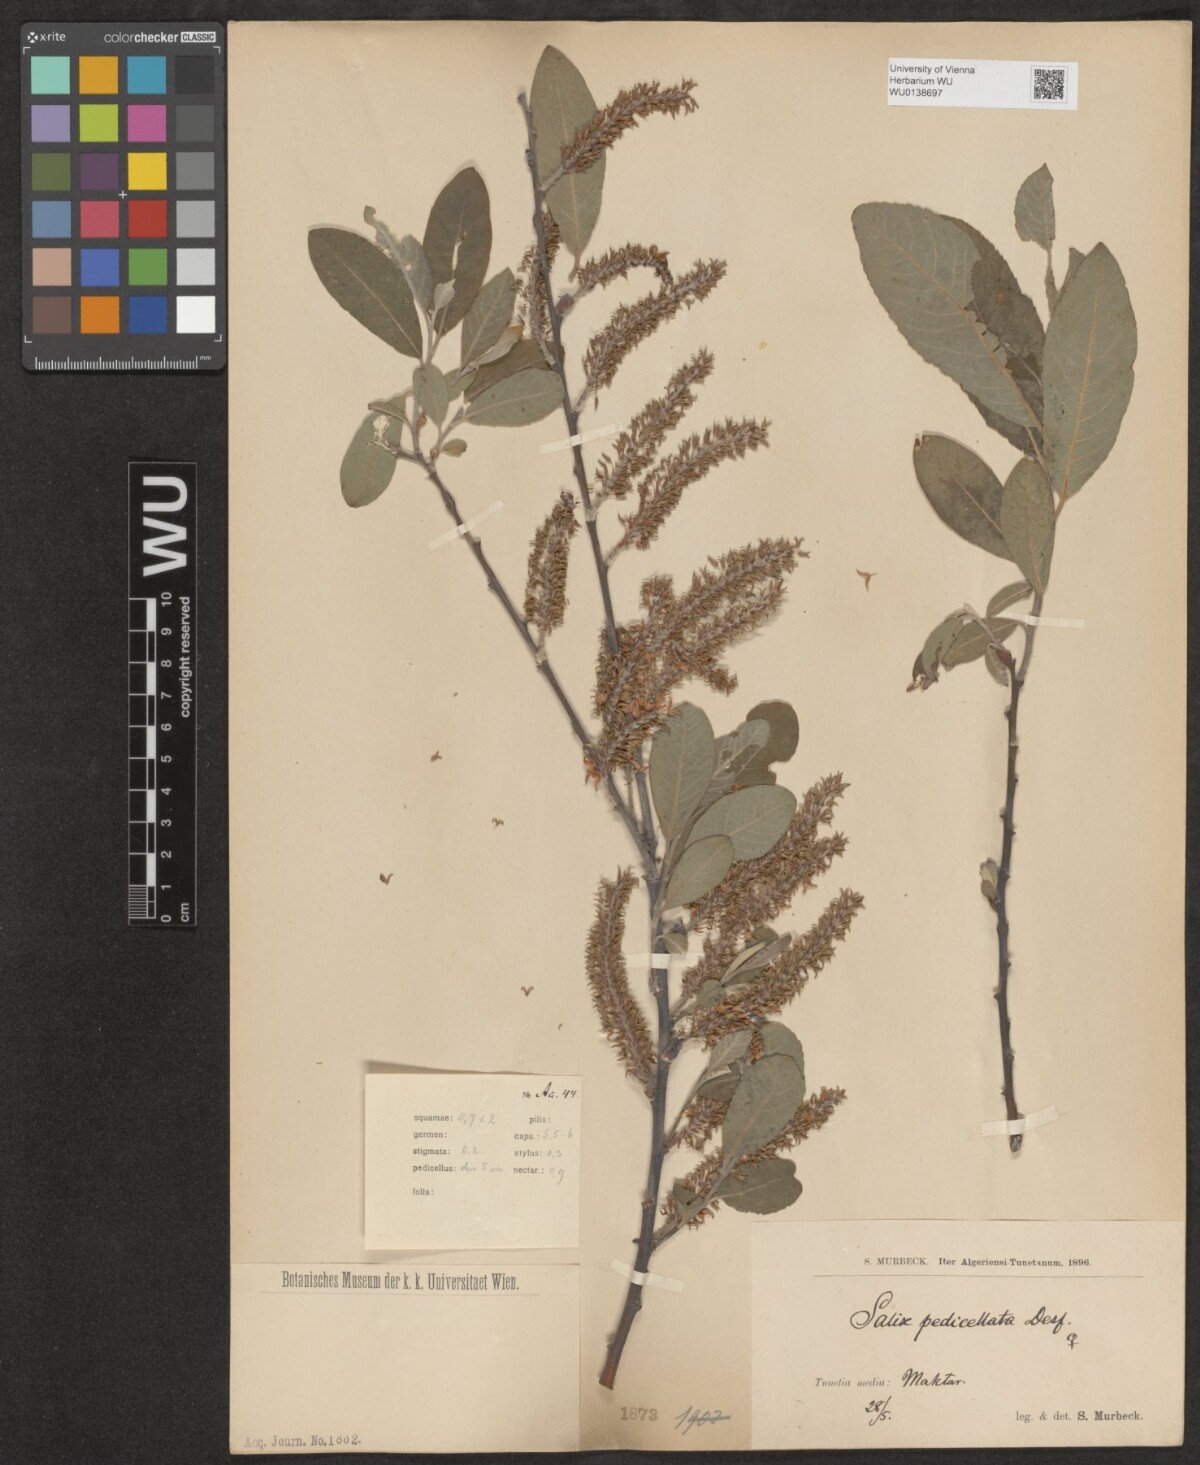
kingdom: Plantae
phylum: Tracheophyta
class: Magnoliopsida
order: Malpighiales
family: Salicaceae
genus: Salix
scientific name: Salix pedicellata
